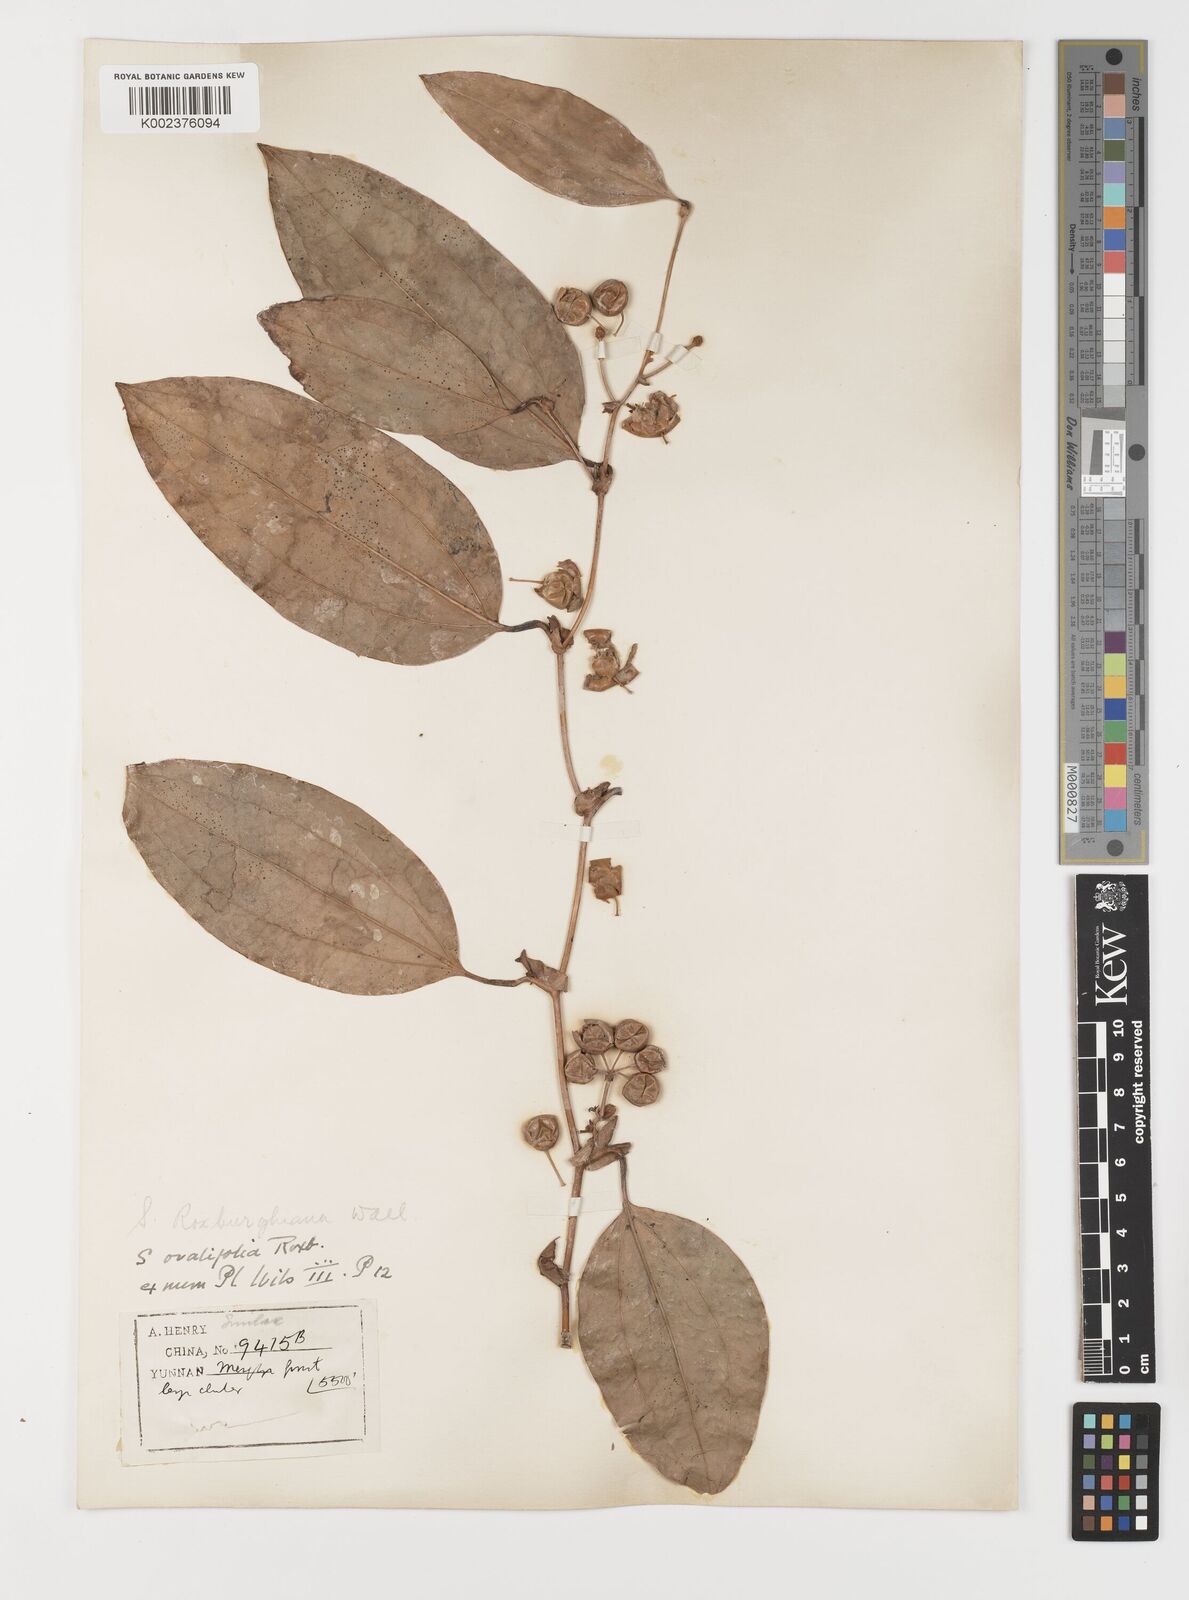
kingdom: Plantae
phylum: Tracheophyta
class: Liliopsida
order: Liliales
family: Smilacaceae
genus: Smilax
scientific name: Smilax ocreata
